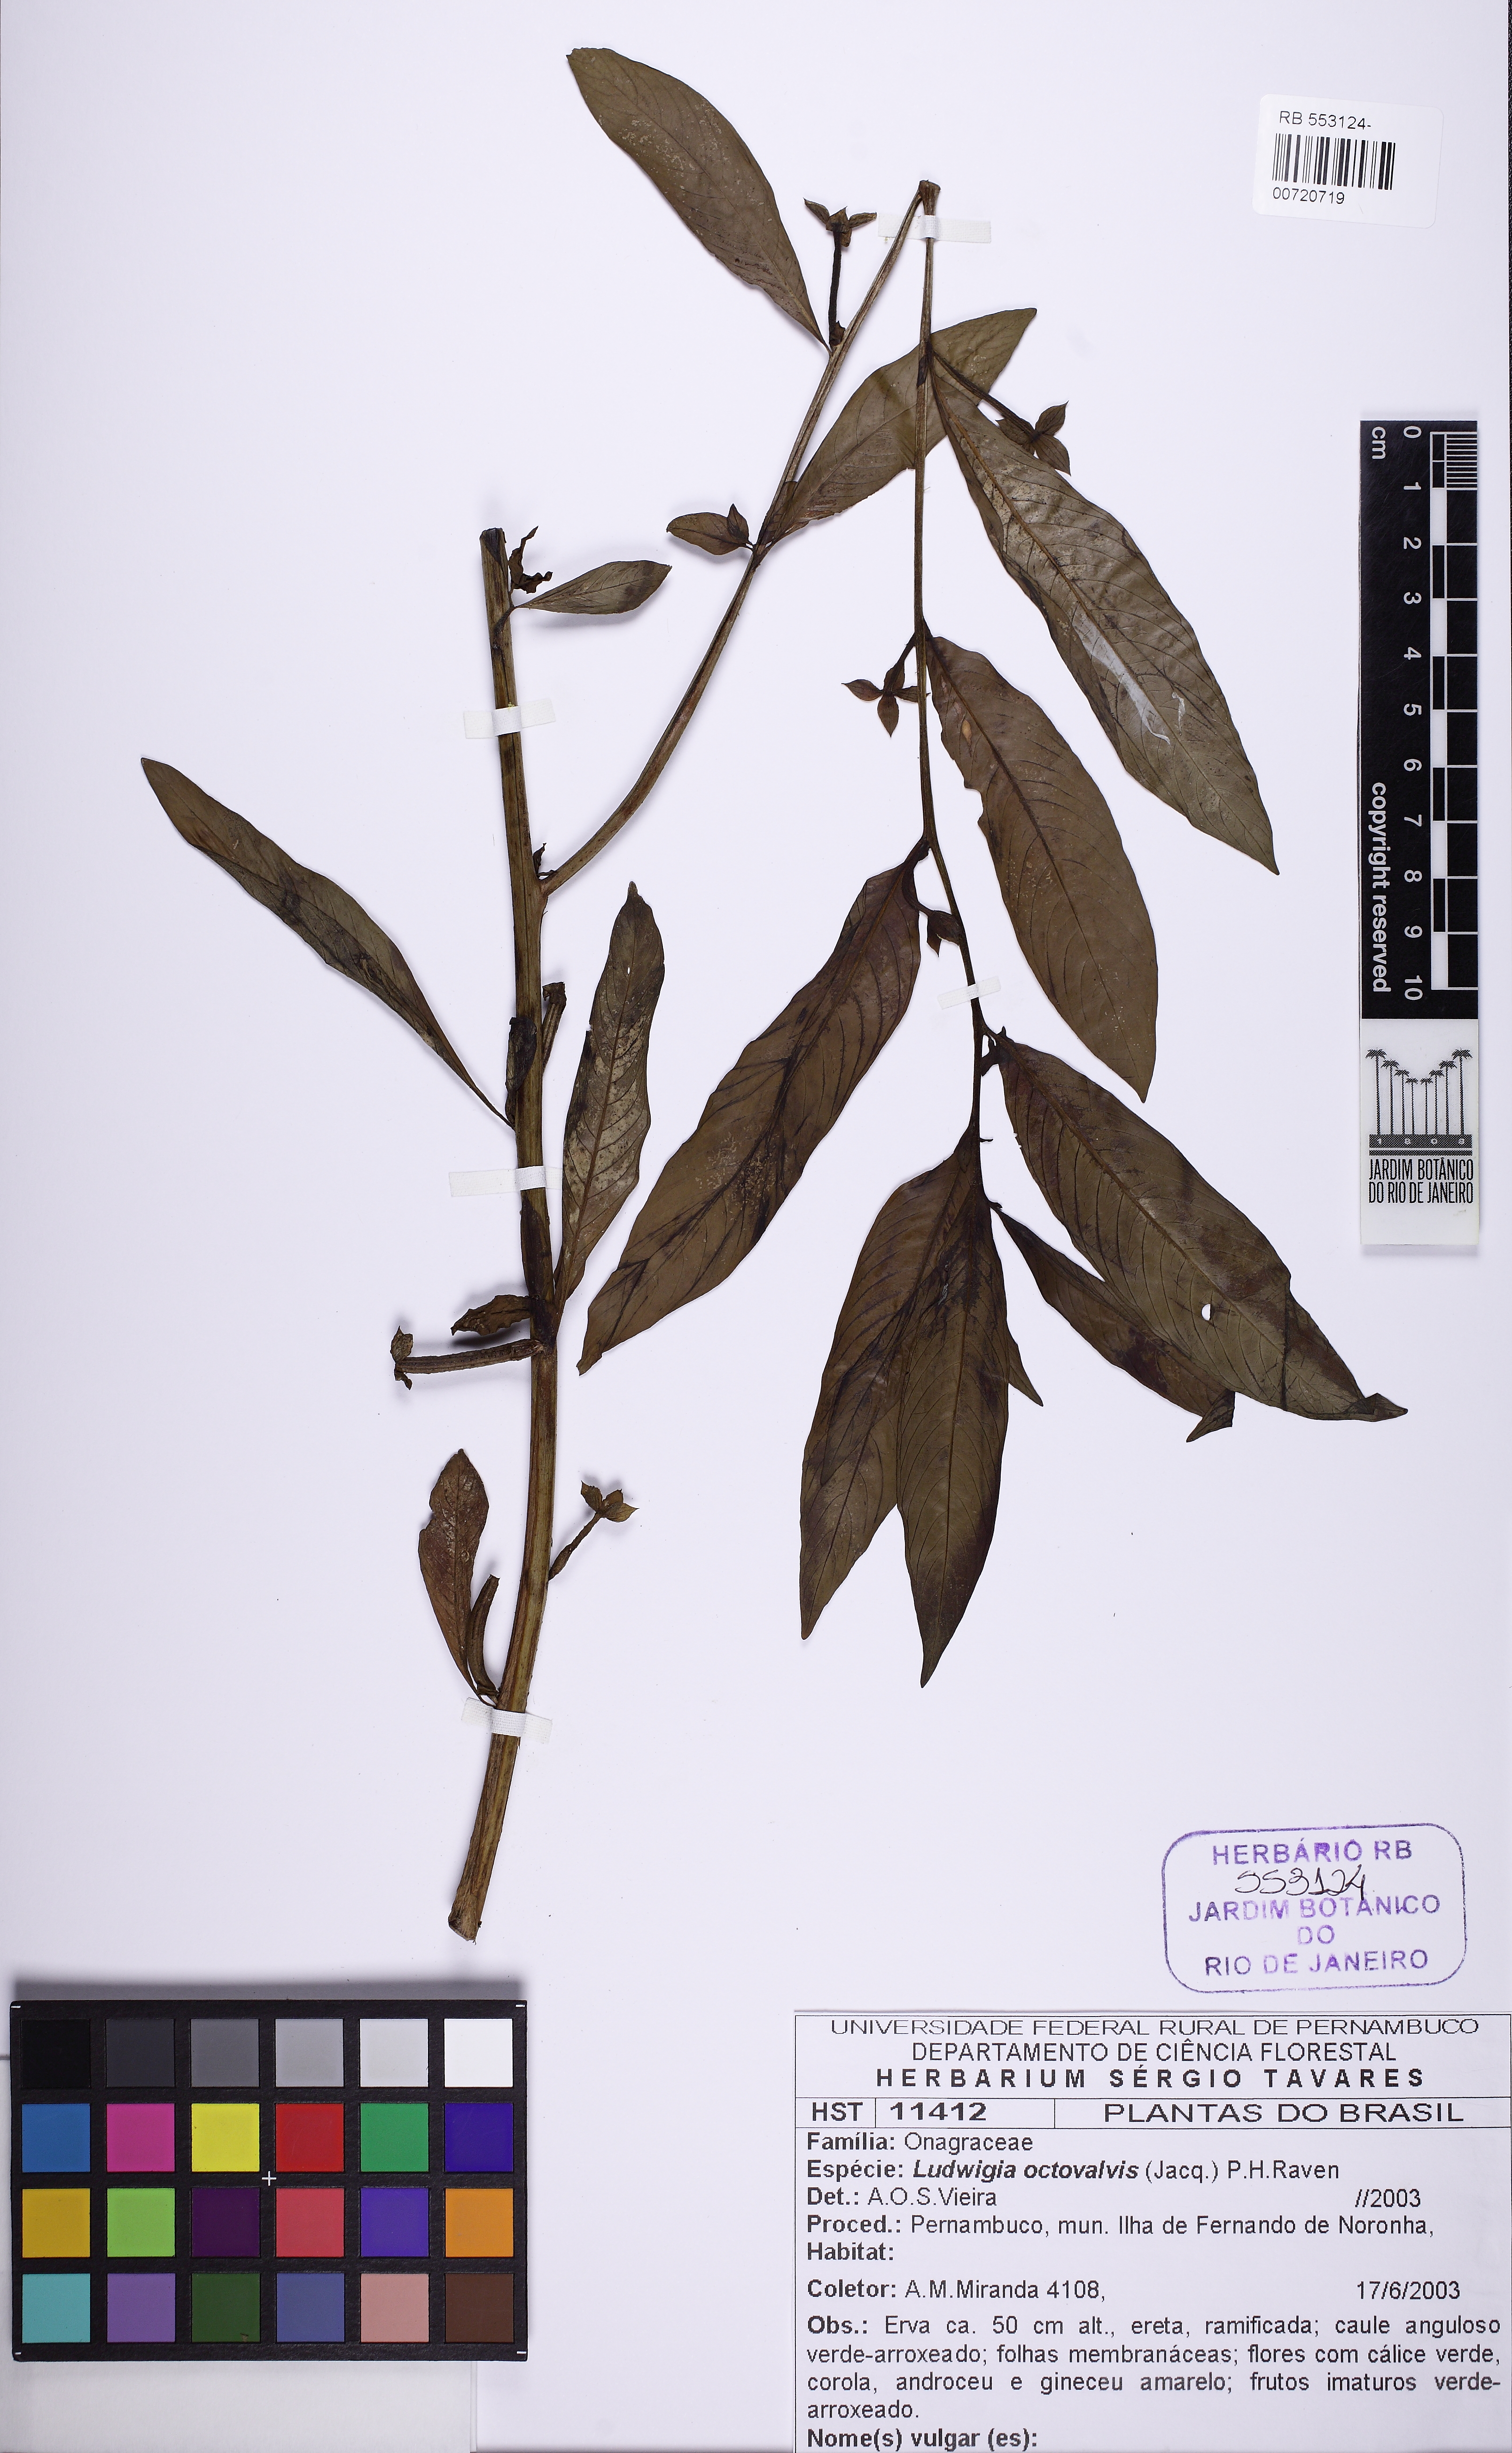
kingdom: Plantae
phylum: Tracheophyta
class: Magnoliopsida
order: Myrtales
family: Onagraceae
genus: Ludwigia
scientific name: Ludwigia octovalvis
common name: Water-primrose
